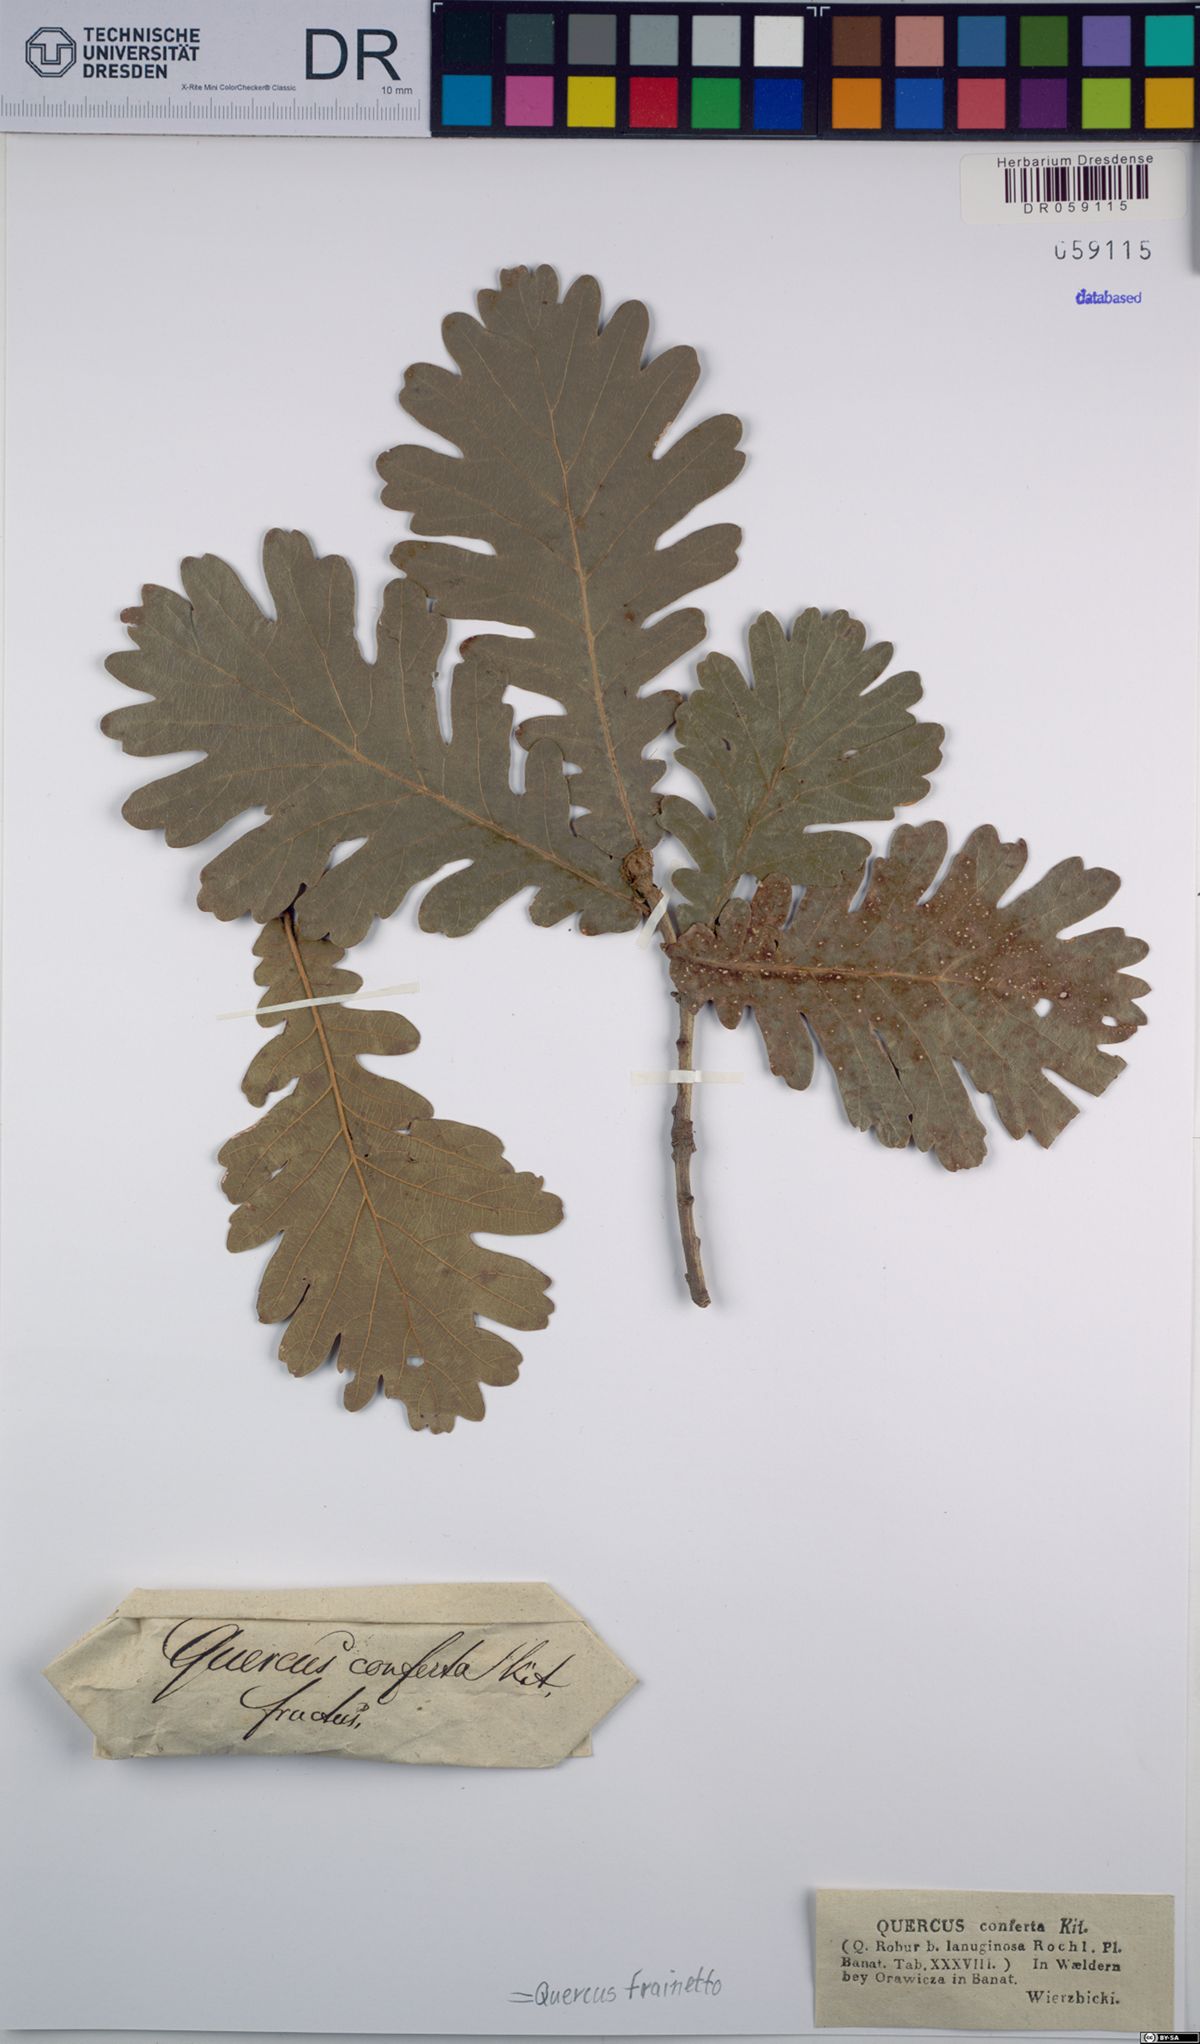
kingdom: Plantae
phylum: Tracheophyta
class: Magnoliopsida
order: Fagales
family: Fagaceae
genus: Quercus
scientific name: Quercus conferta
